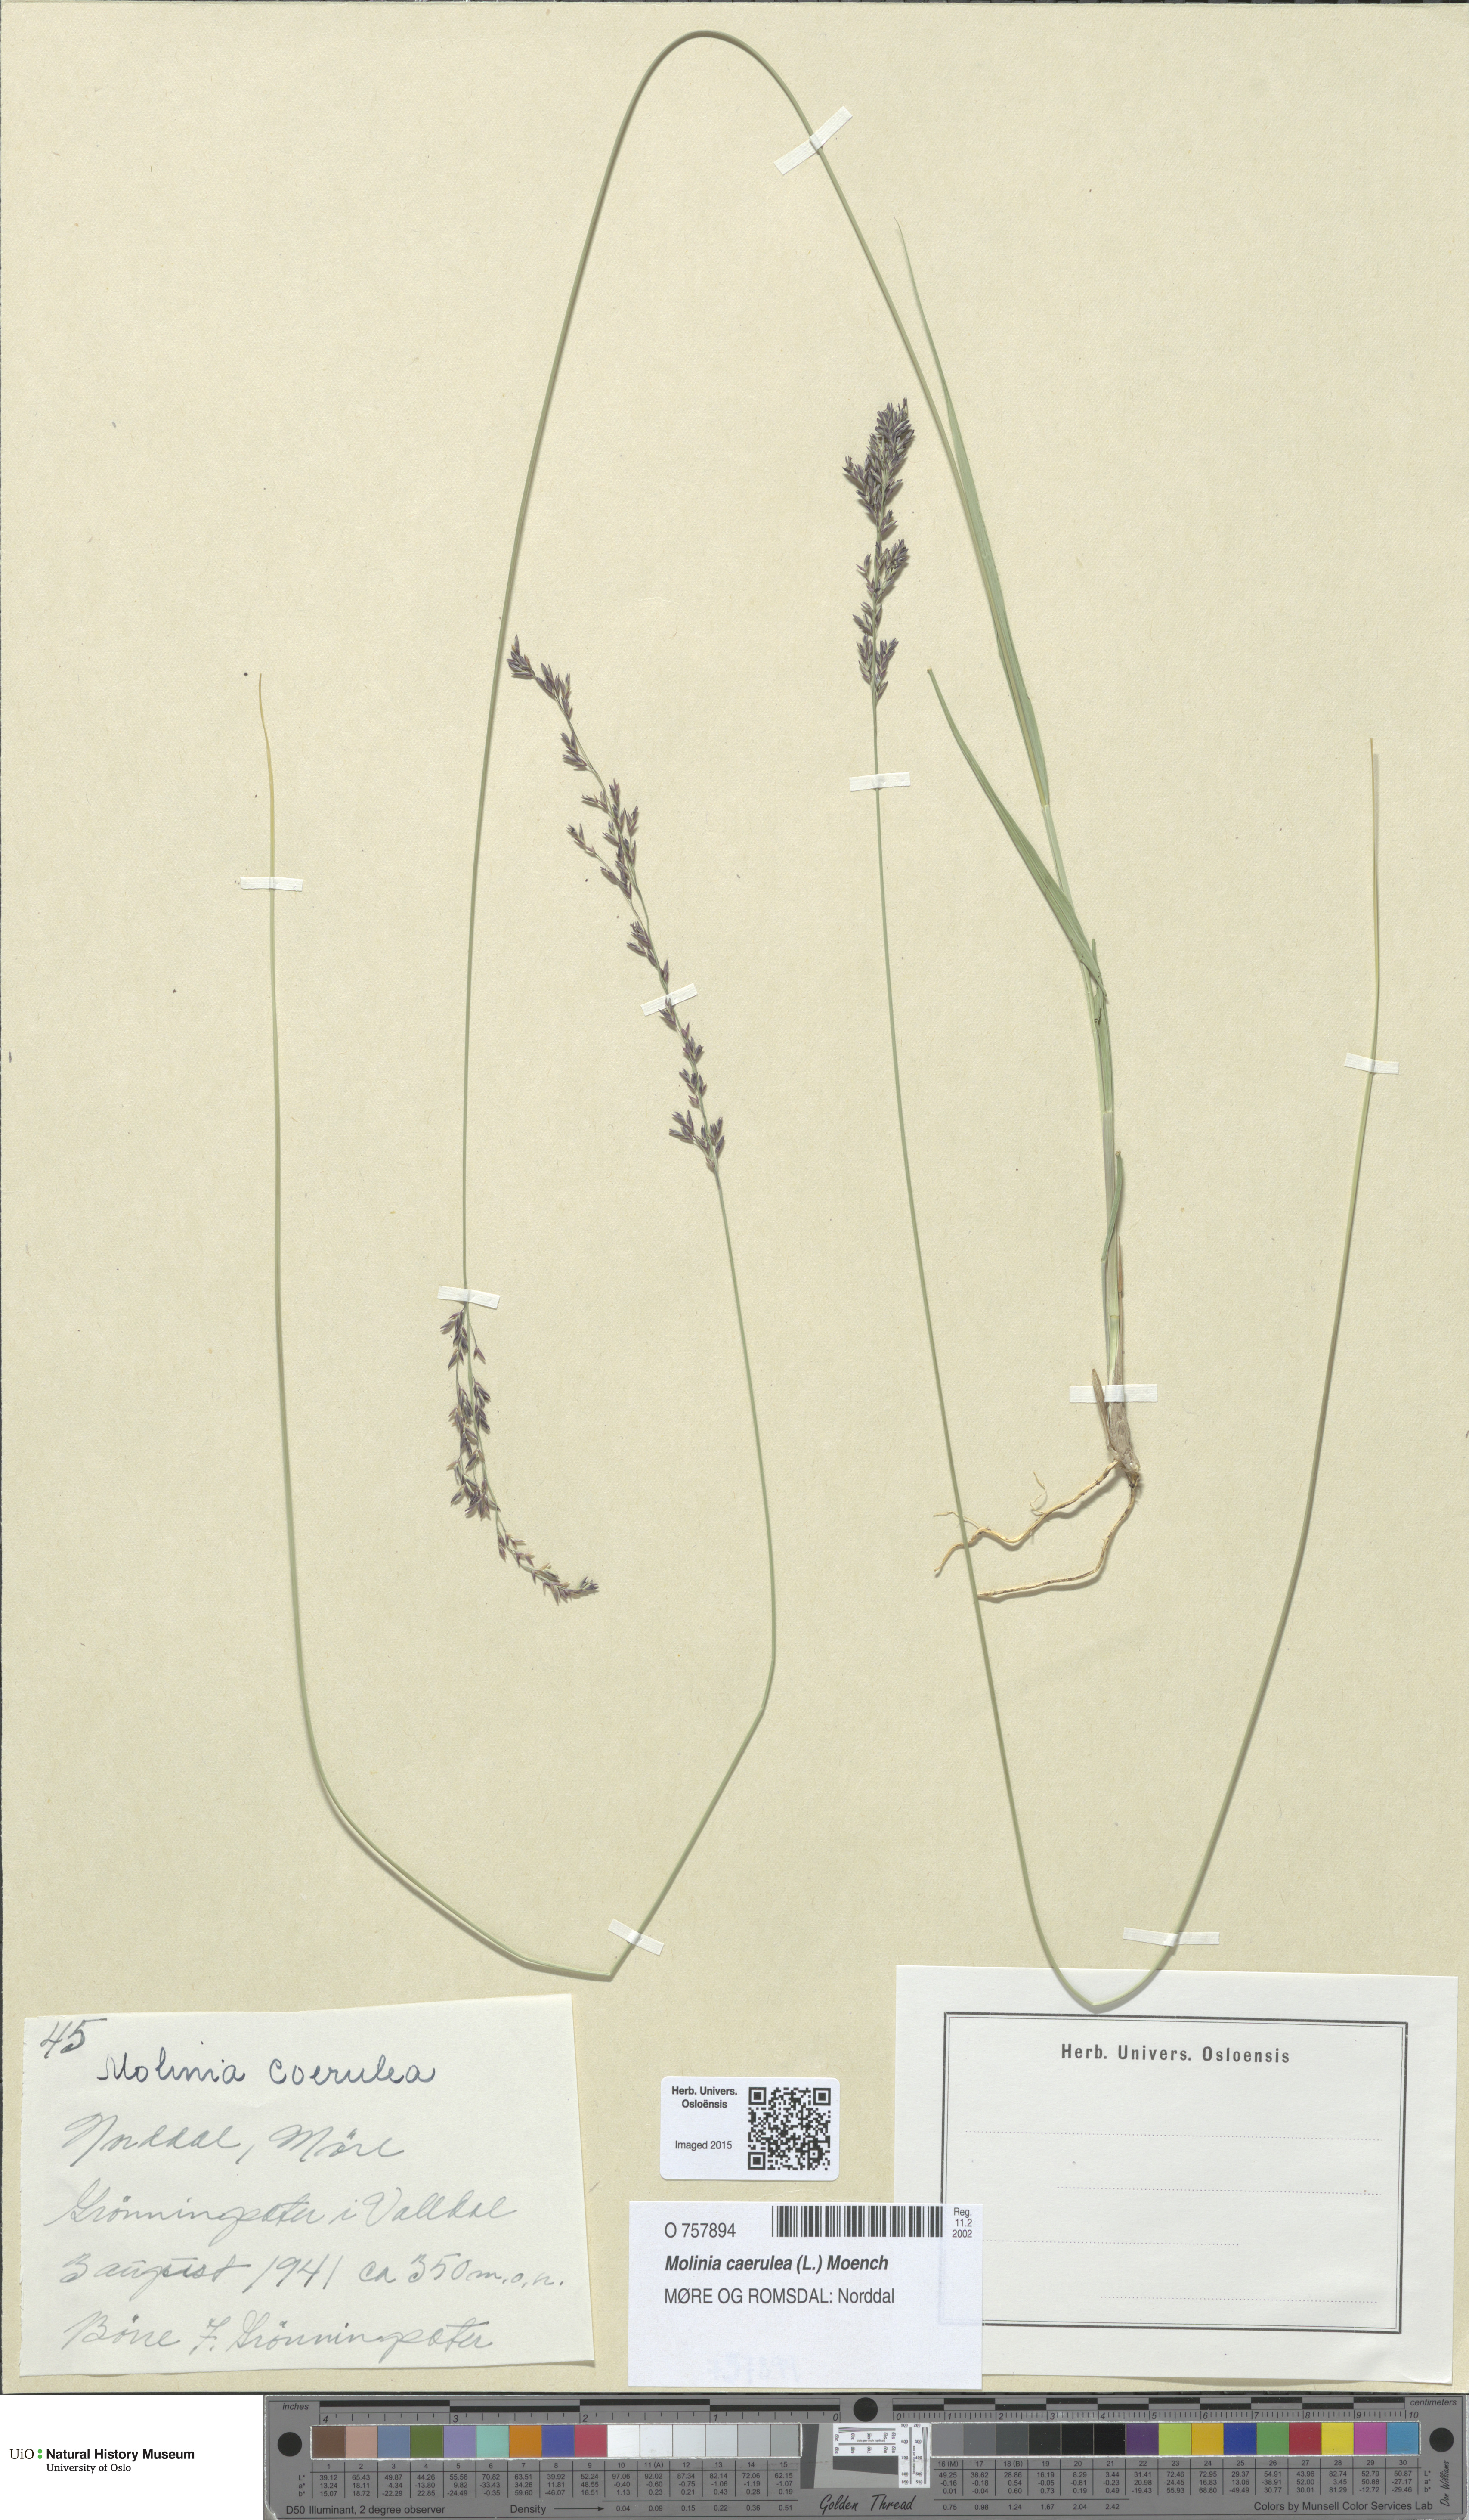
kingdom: Plantae
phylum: Tracheophyta
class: Liliopsida
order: Poales
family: Poaceae
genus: Molinia
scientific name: Molinia caerulea
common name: Purple moor-grass
